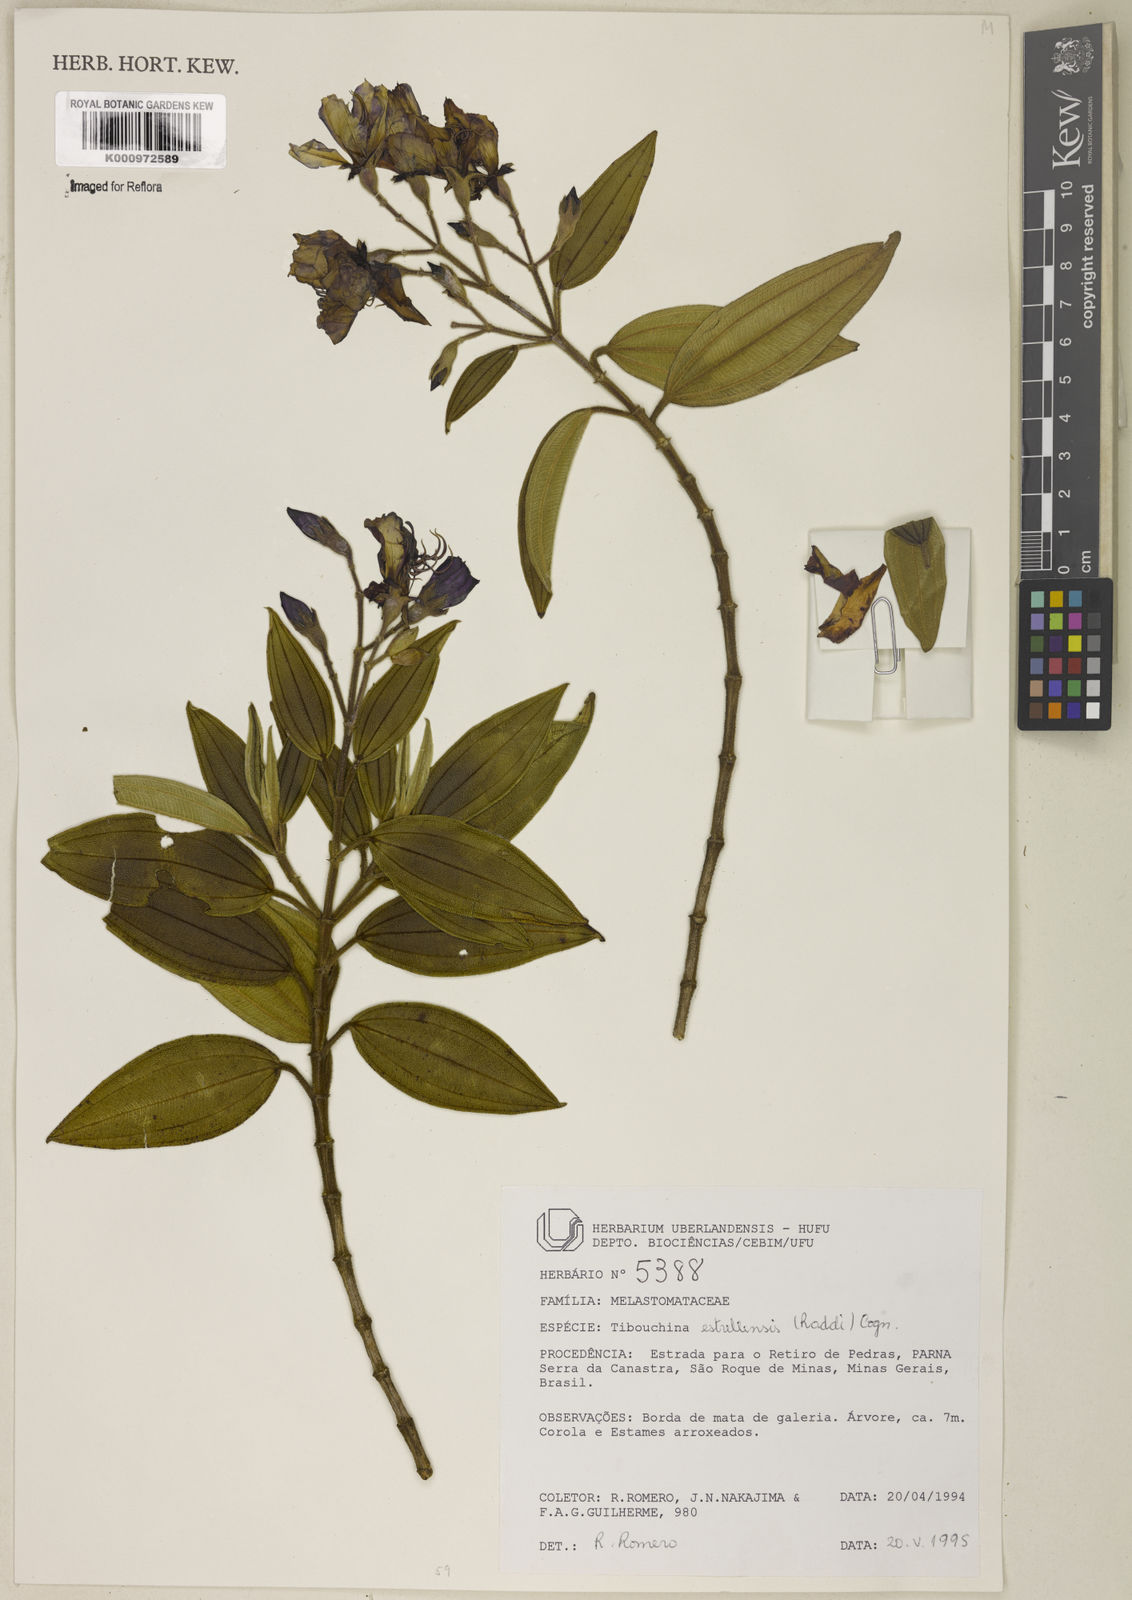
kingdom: Plantae
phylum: Tracheophyta
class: Magnoliopsida
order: Myrtales
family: Melastomataceae
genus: Pleroma
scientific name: Pleroma estrellense
